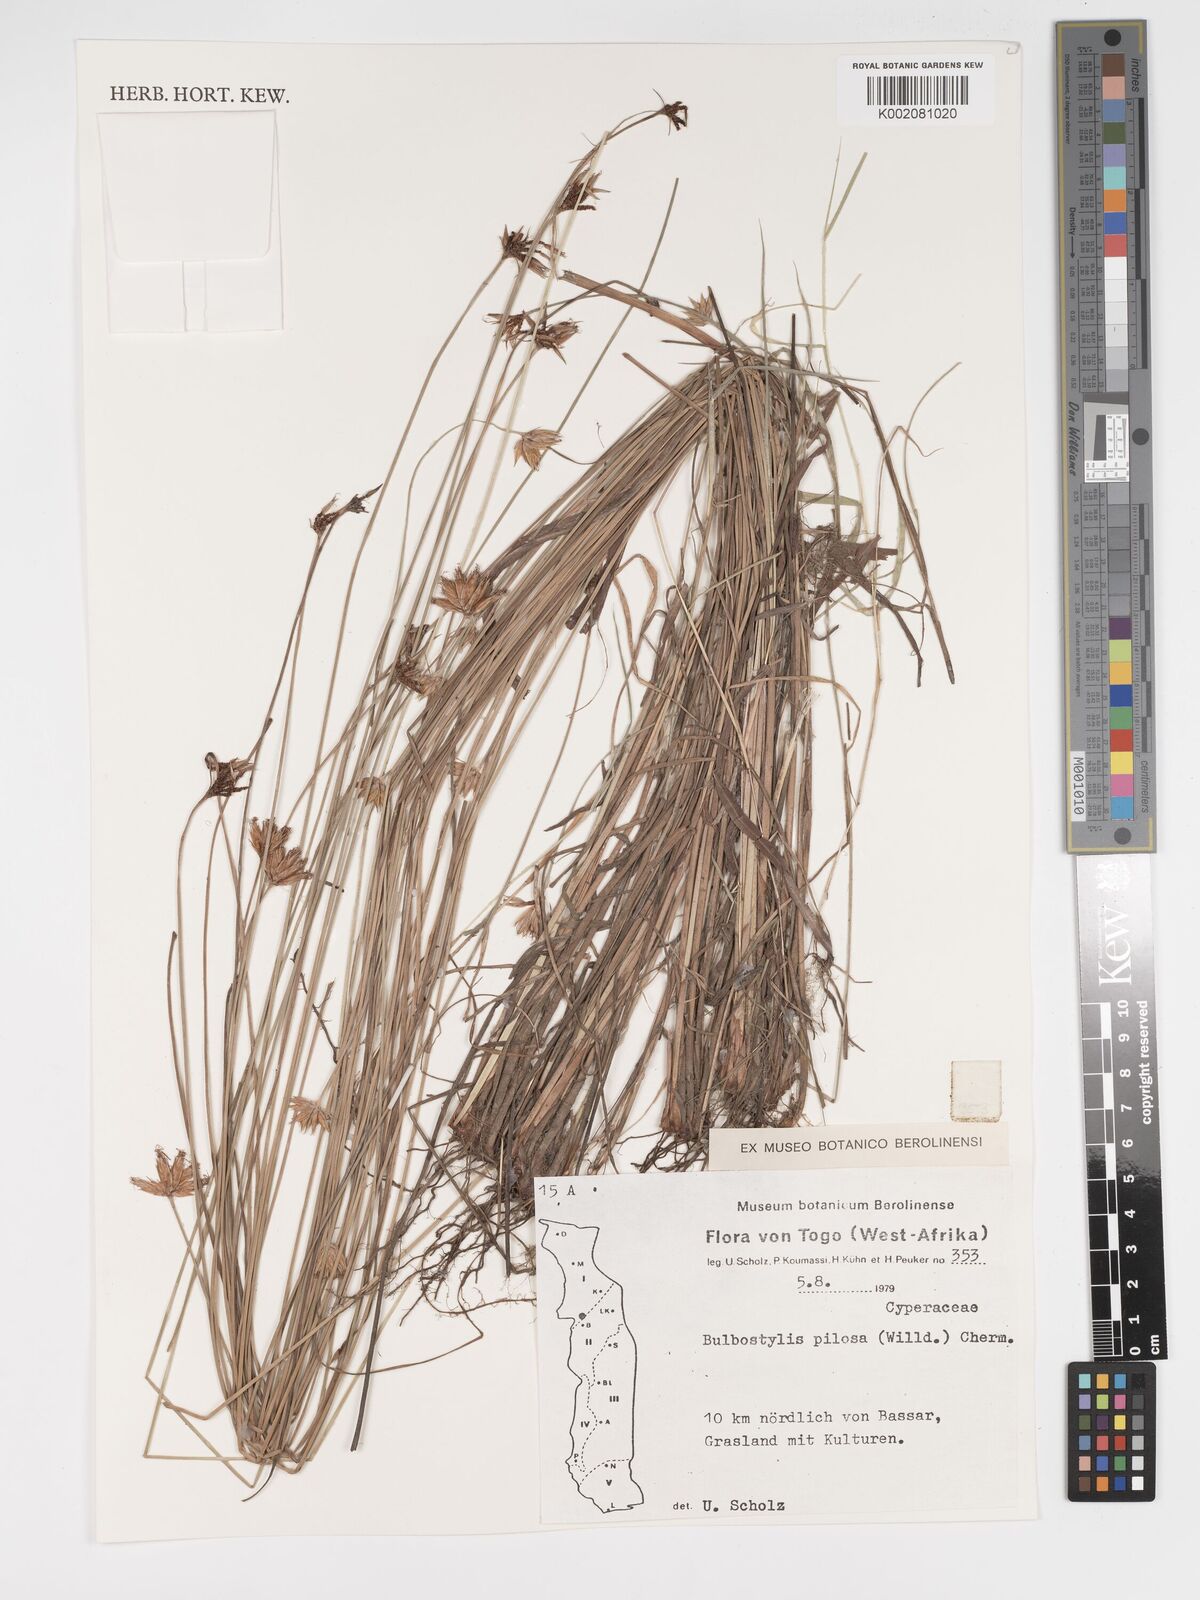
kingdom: Plantae
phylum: Tracheophyta
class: Liliopsida
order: Poales
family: Cyperaceae
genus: Bulbostylis
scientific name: Bulbostylis pilosa
